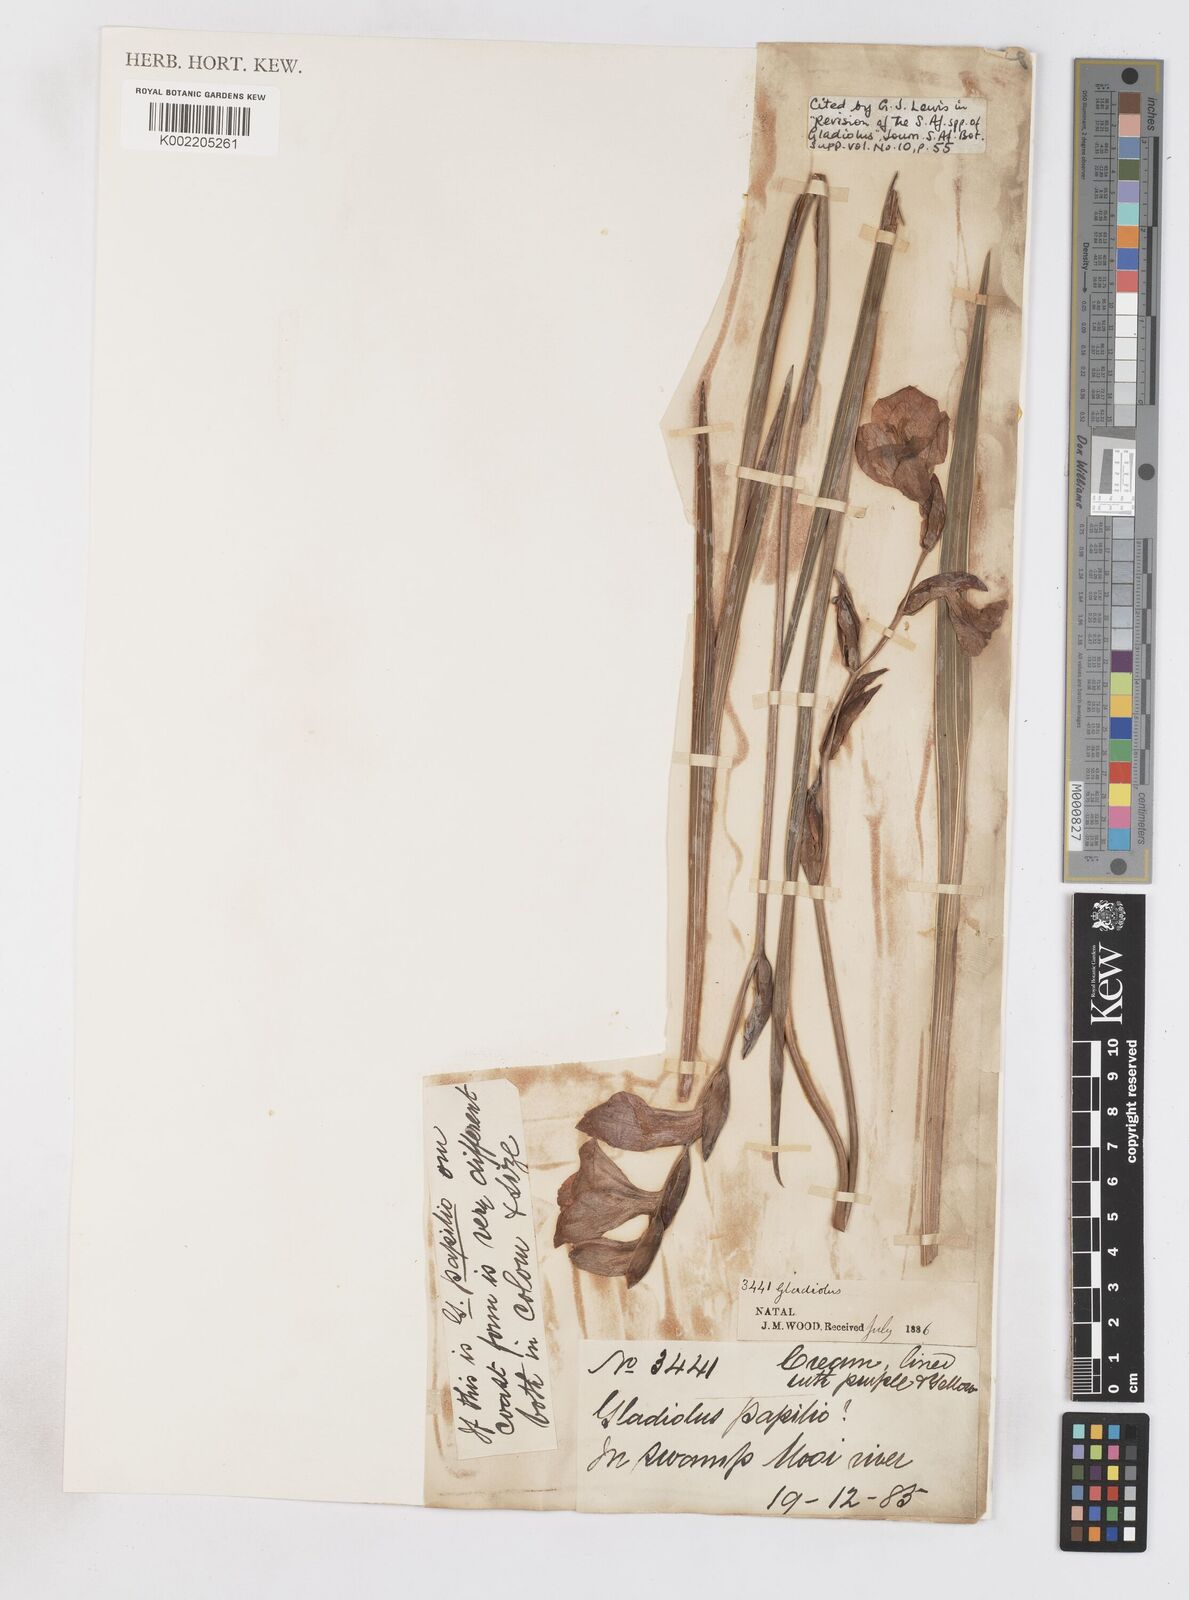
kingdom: Plantae
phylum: Tracheophyta
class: Liliopsida
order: Asparagales
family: Iridaceae
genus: Gladiolus
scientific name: Gladiolus papilio
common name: Goldblotch gladiolus
